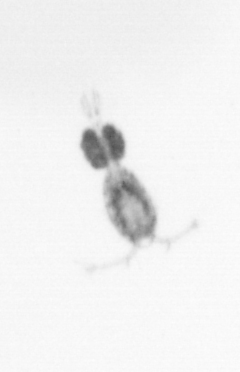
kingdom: Animalia
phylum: Arthropoda
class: Copepoda
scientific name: Copepoda
